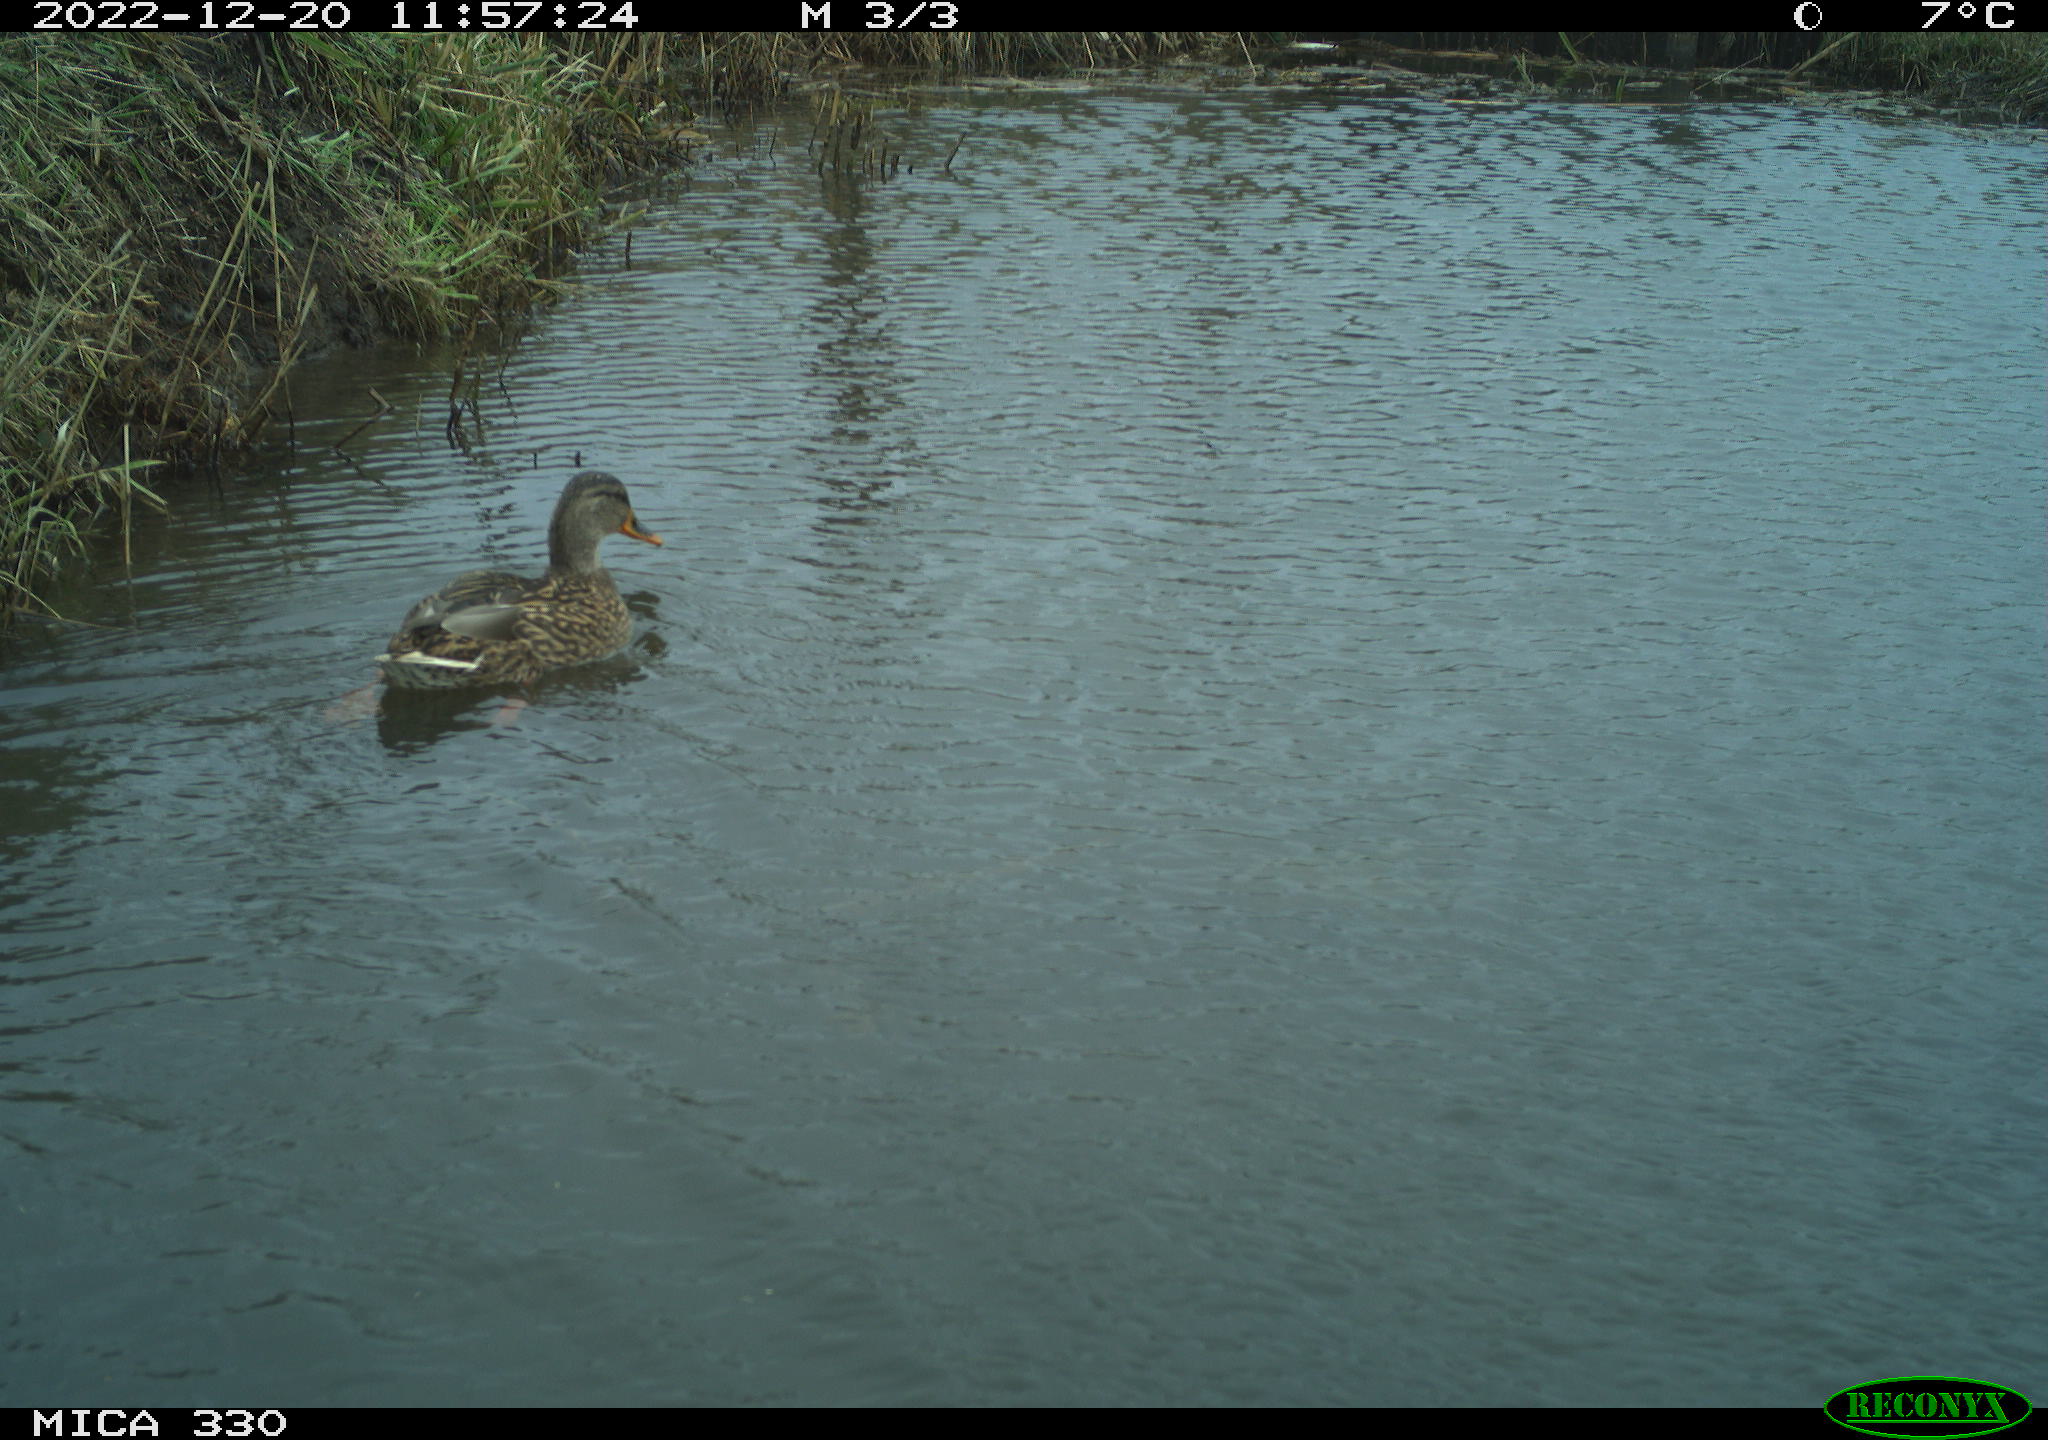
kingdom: Animalia
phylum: Chordata
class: Aves
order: Anseriformes
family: Anatidae
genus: Anas
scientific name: Anas
